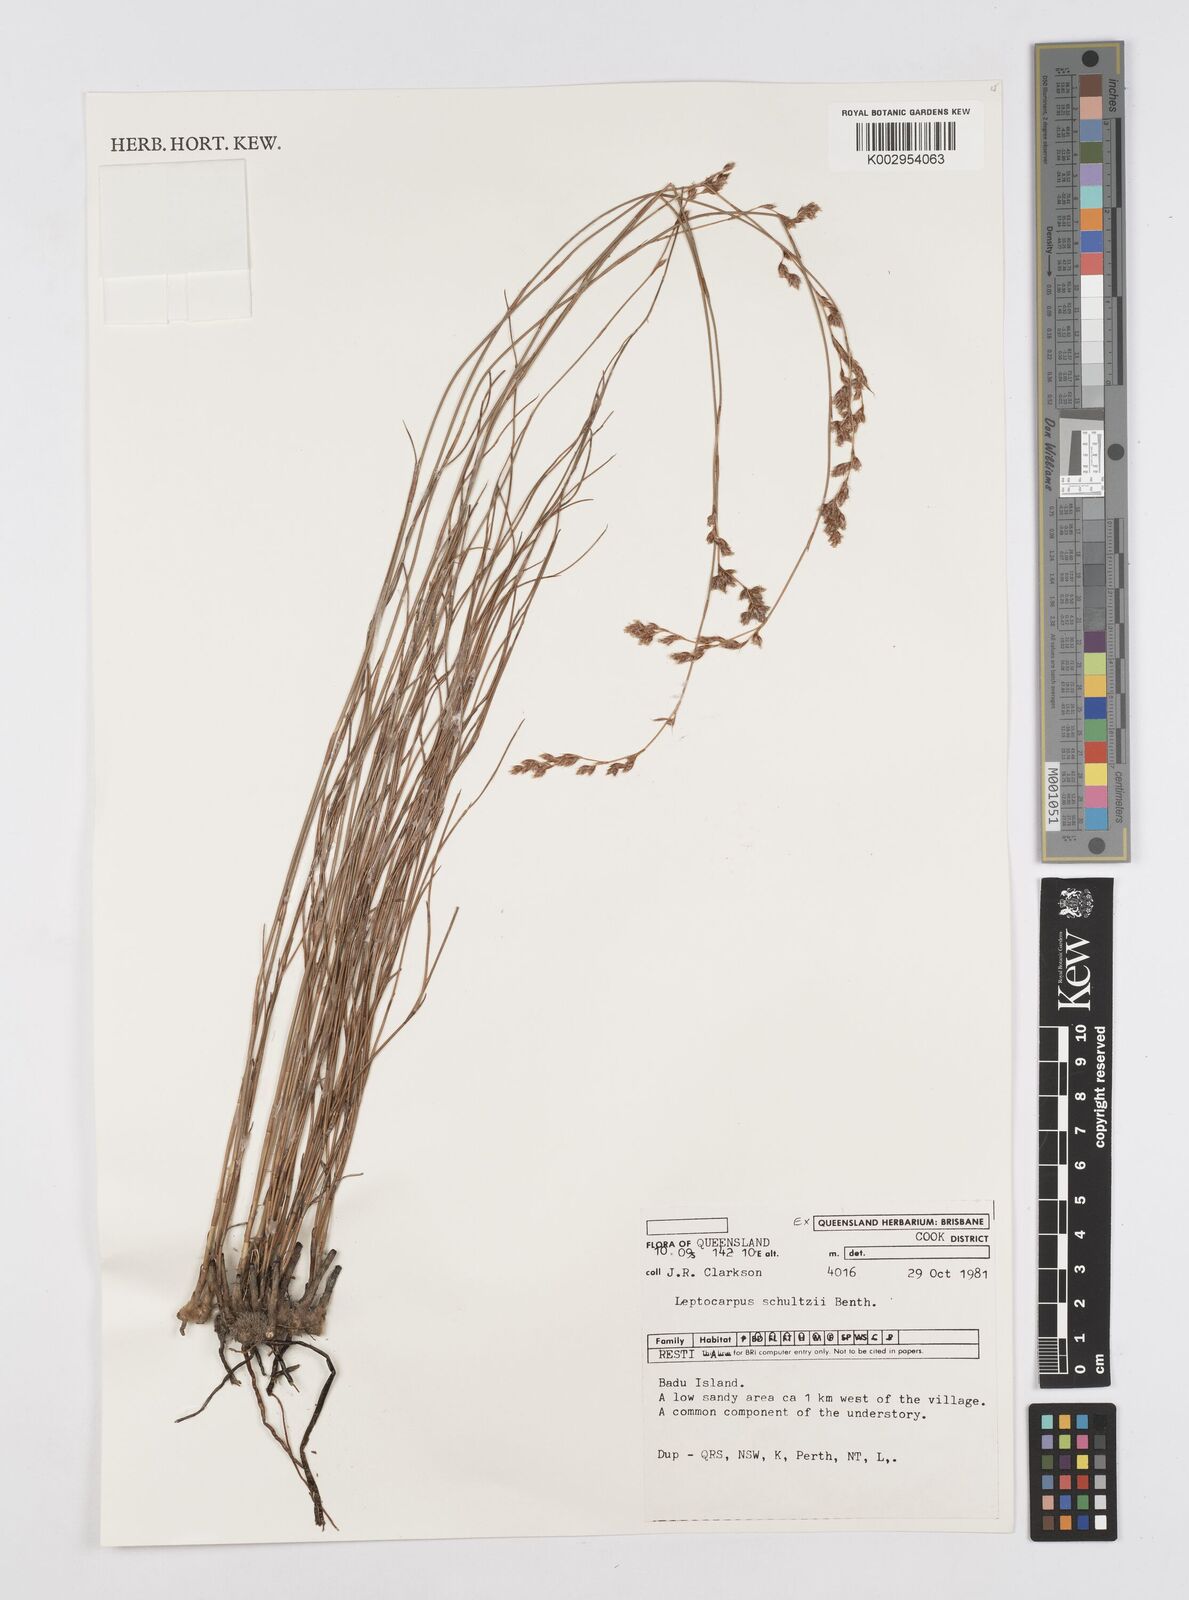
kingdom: Plantae
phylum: Tracheophyta
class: Liliopsida
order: Poales
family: Restionaceae
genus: Dapsilanthus
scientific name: Dapsilanthus spathaceus
